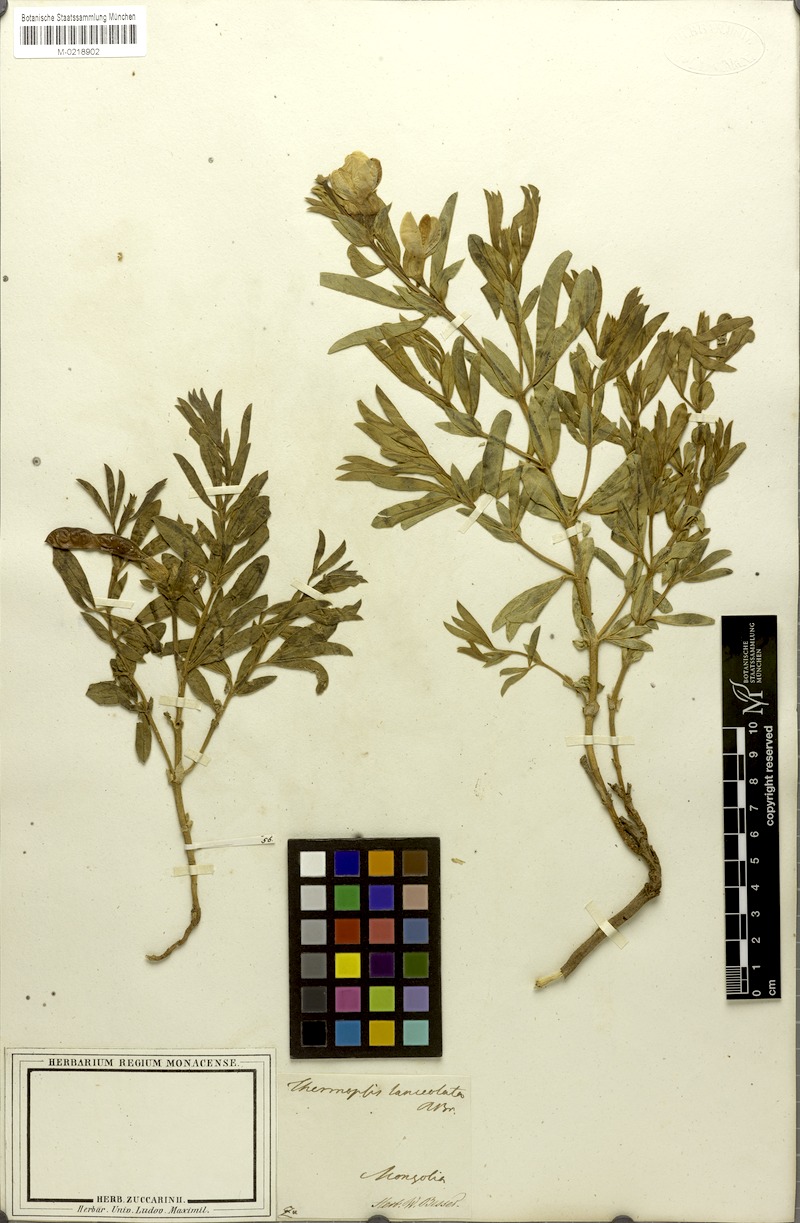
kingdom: Plantae
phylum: Tracheophyta
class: Magnoliopsida
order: Fabales
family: Fabaceae
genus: Thermopsis
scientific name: Thermopsis lanceolata
